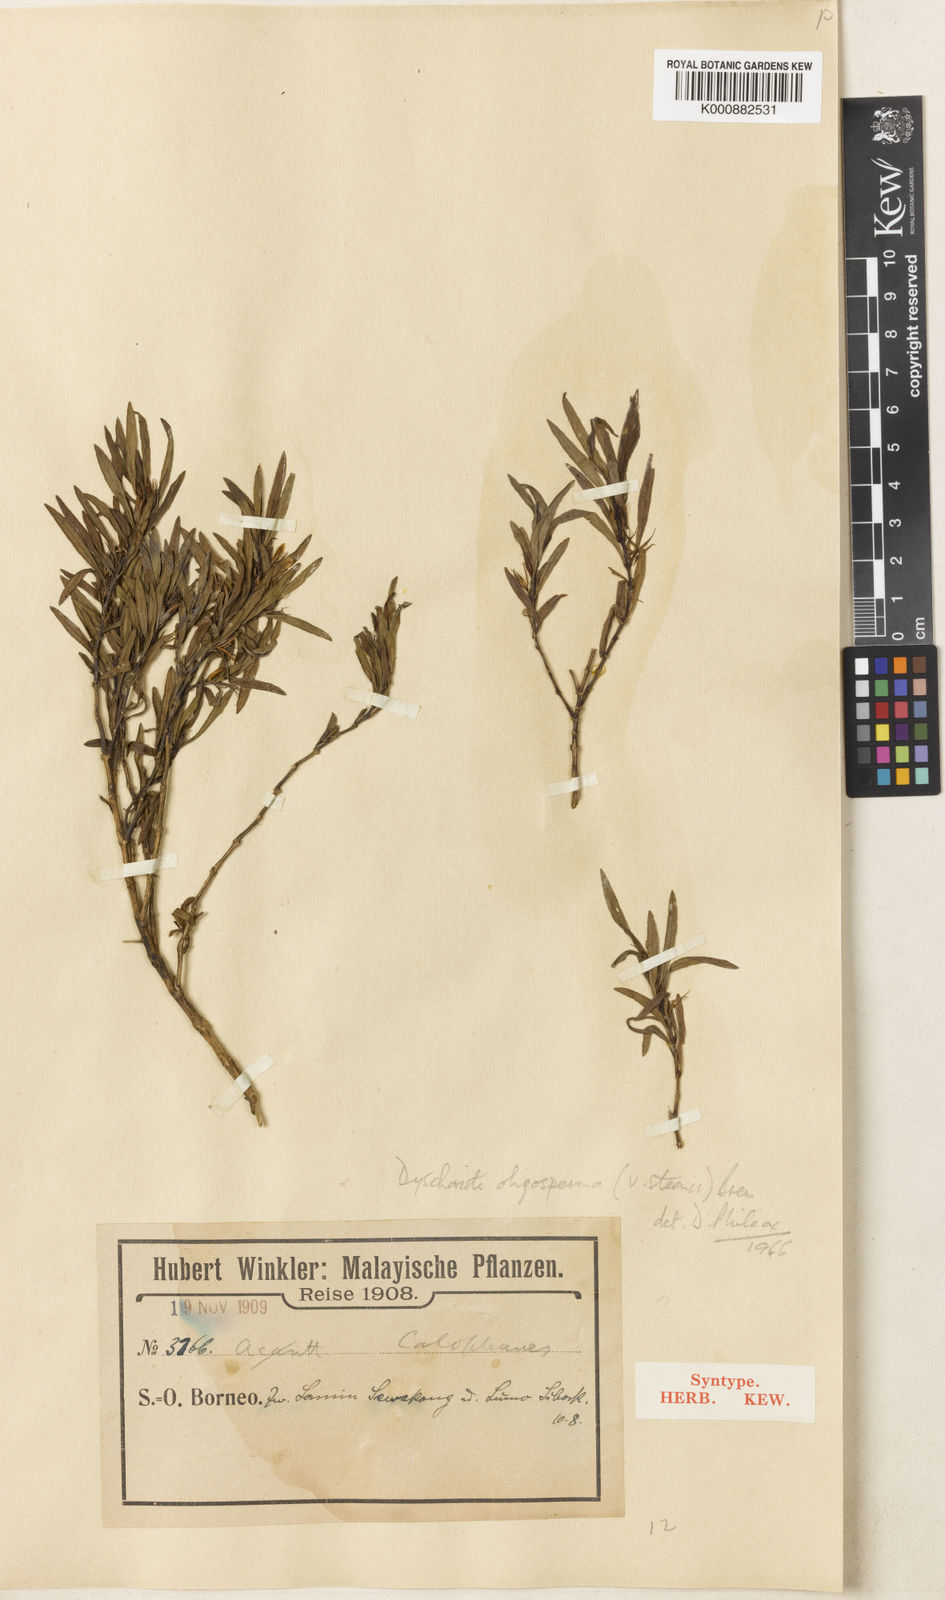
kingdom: Plantae
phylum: Tracheophyta
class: Magnoliopsida
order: Lamiales
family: Acanthaceae
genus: Dyschoriste
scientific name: Dyschoriste oligosperma
